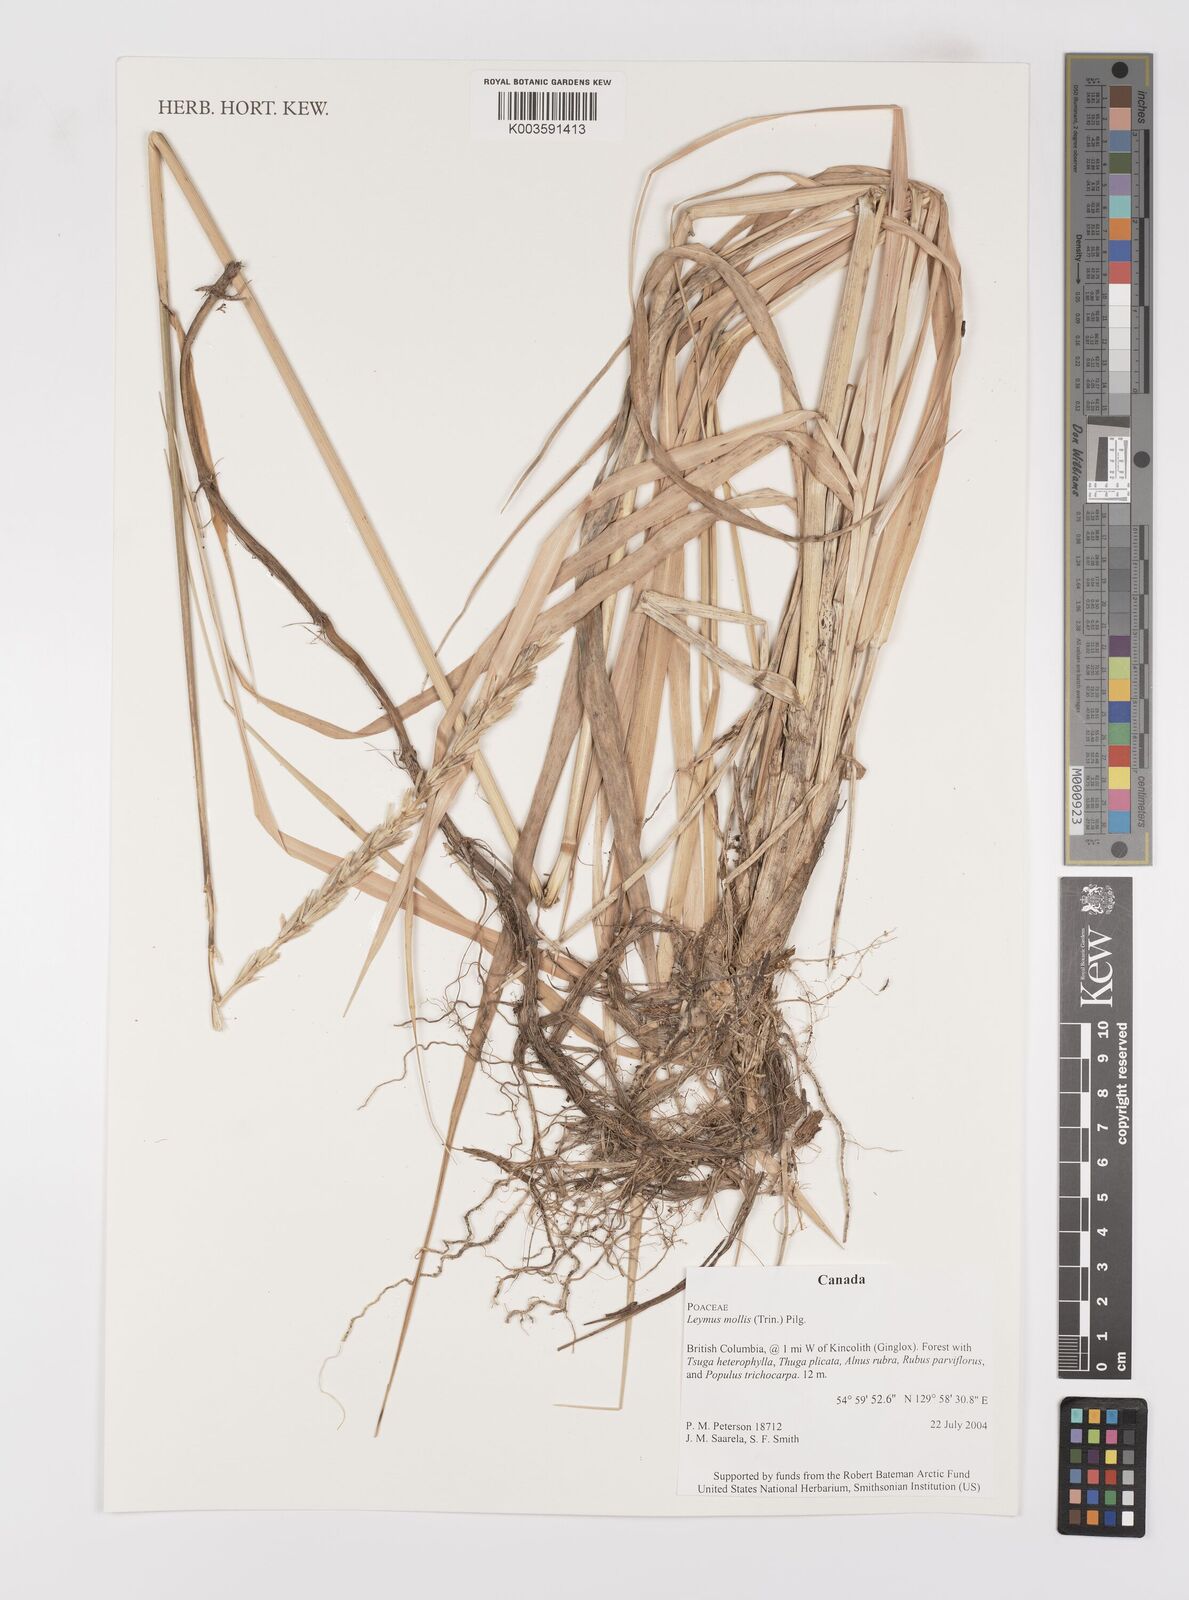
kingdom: Plantae
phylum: Tracheophyta
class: Liliopsida
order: Poales
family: Poaceae
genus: Leymus
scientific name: Leymus mollis
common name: American dune grass
